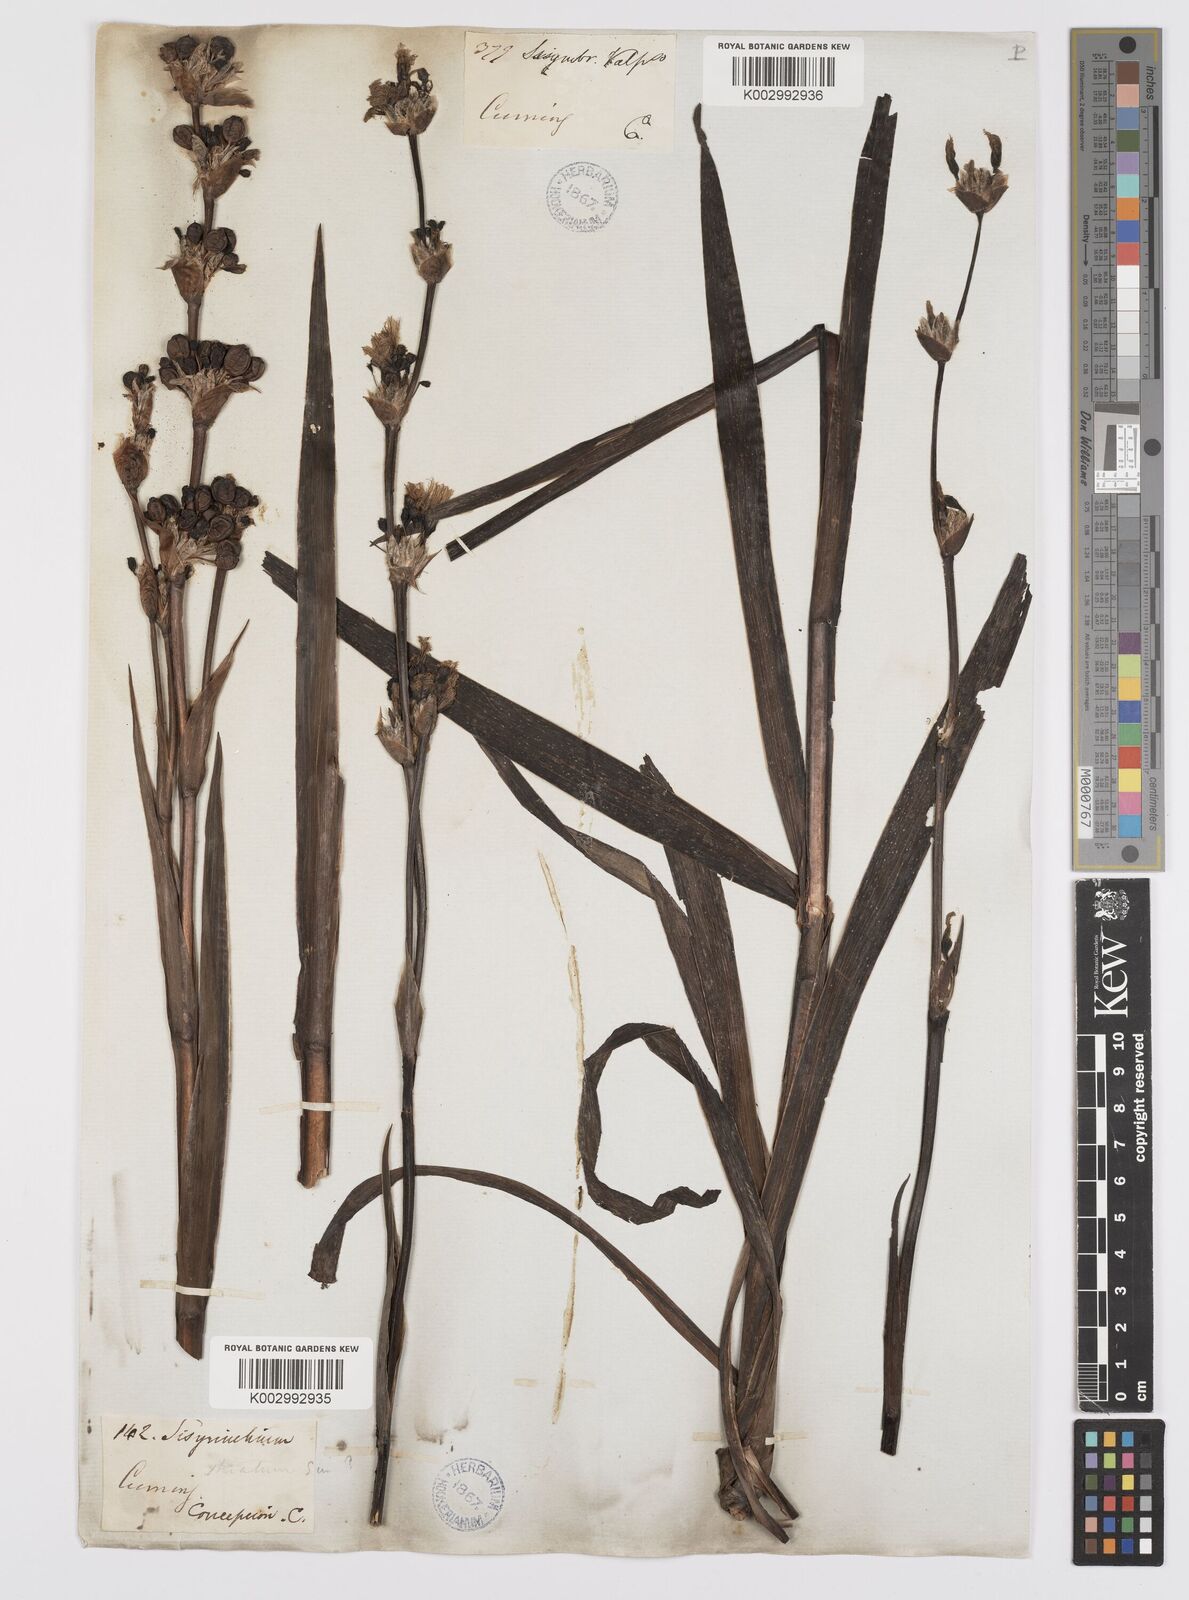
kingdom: Plantae
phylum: Tracheophyta
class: Liliopsida
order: Asparagales
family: Iridaceae
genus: Sisyrinchium
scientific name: Sisyrinchium striatum
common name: Pale yellow-eyed-grass
